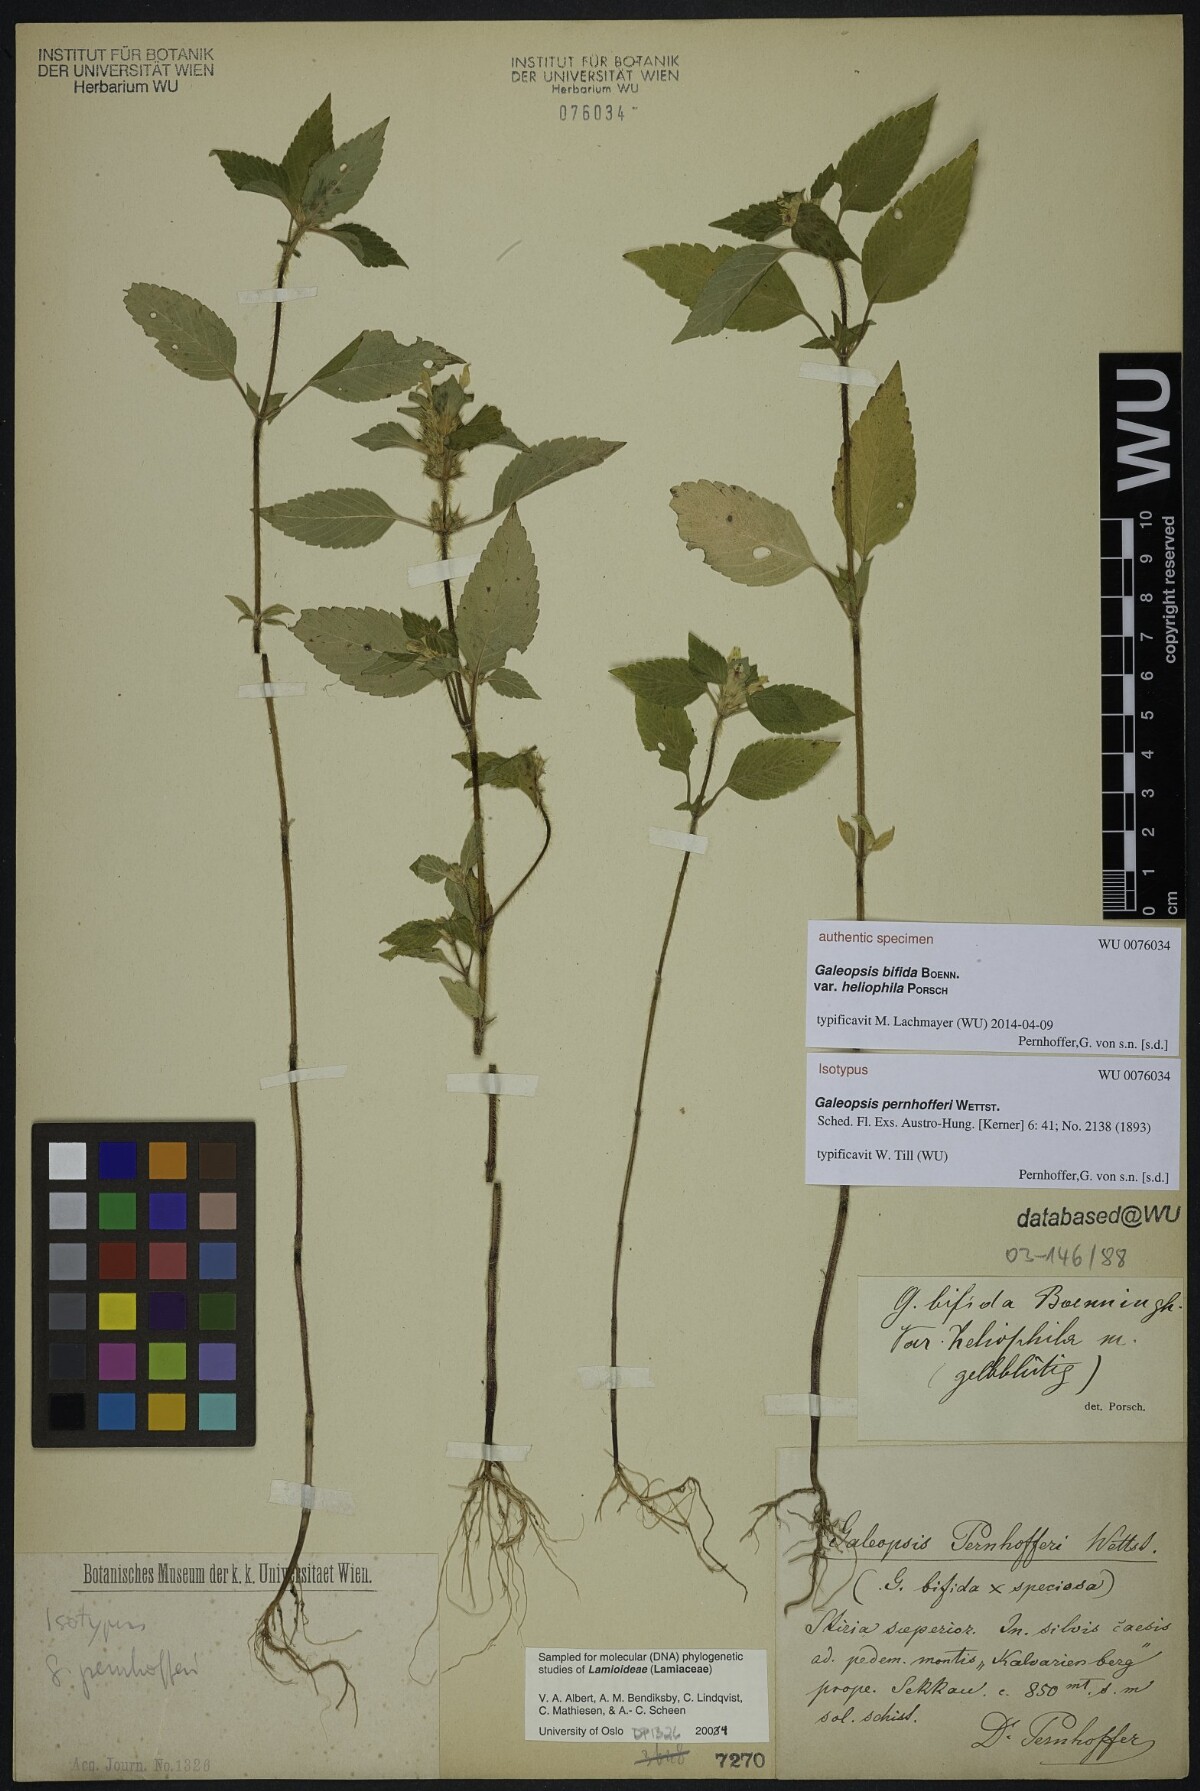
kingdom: Plantae
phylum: Tracheophyta
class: Magnoliopsida
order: Lamiales
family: Lamiaceae
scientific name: Lamiaceae
